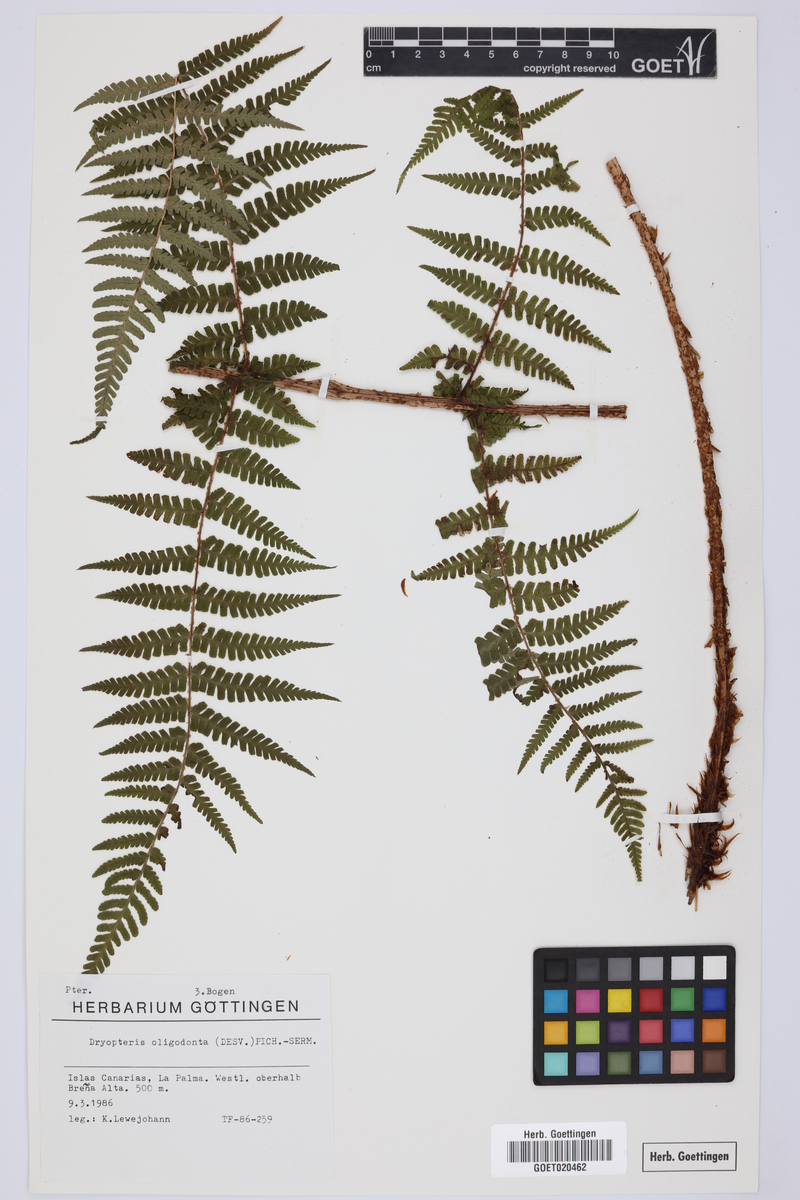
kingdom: Plantae
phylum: Tracheophyta
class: Polypodiopsida
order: Polypodiales
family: Dryopteridaceae
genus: Dryopteris
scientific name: Dryopteris oligodonta
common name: Canarian male-fern
